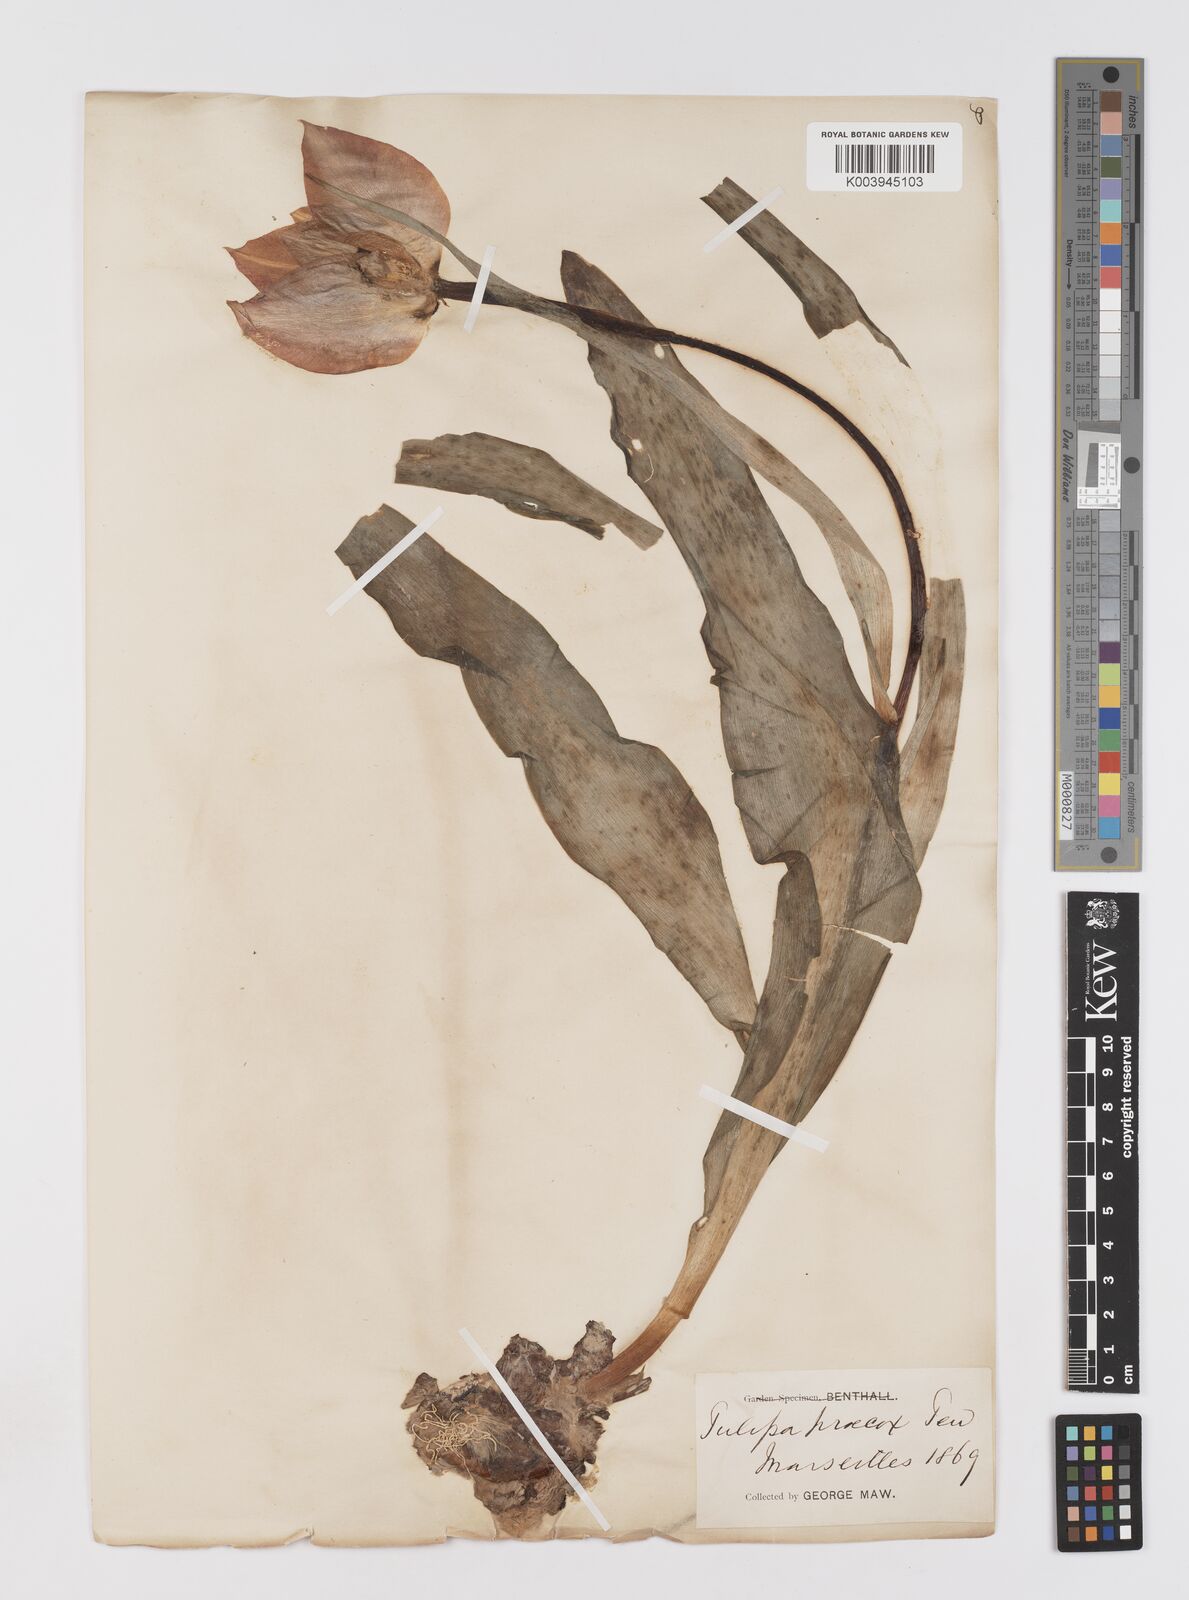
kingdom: Plantae
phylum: Tracheophyta
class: Liliopsida
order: Liliales
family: Liliaceae
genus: Tulipa
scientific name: Tulipa
